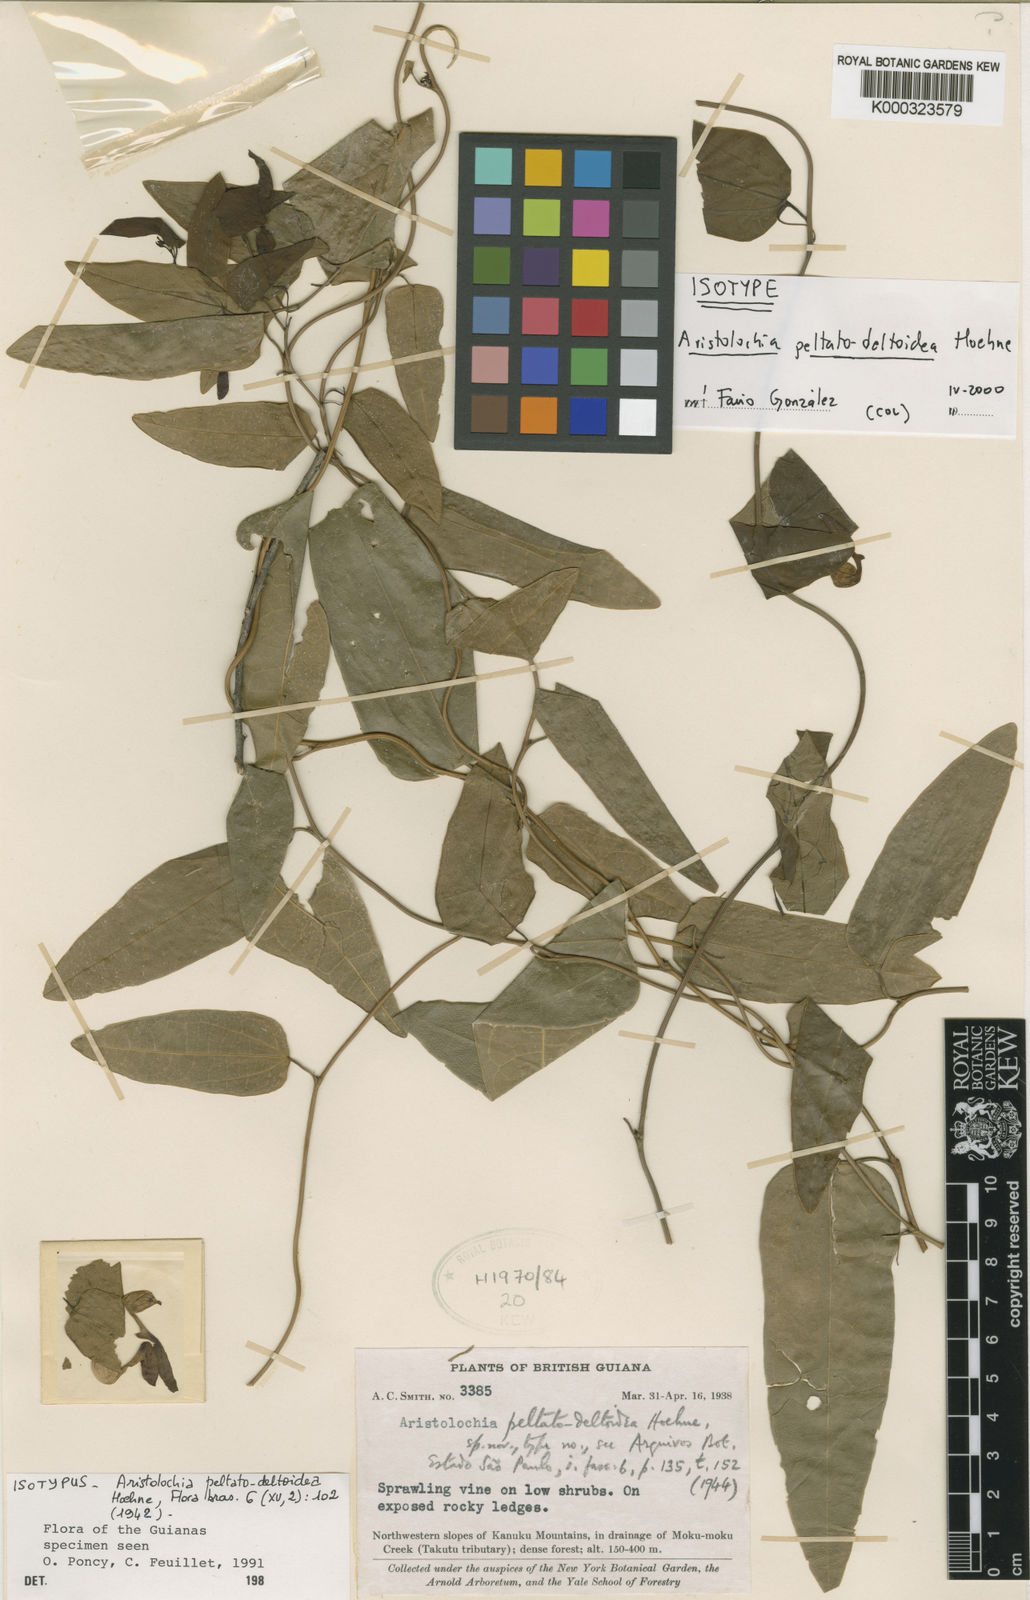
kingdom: Plantae
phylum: Tracheophyta
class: Magnoliopsida
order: Piperales
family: Aristolochiaceae
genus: Aristolochia
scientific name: Aristolochia peltatodeltoidea
